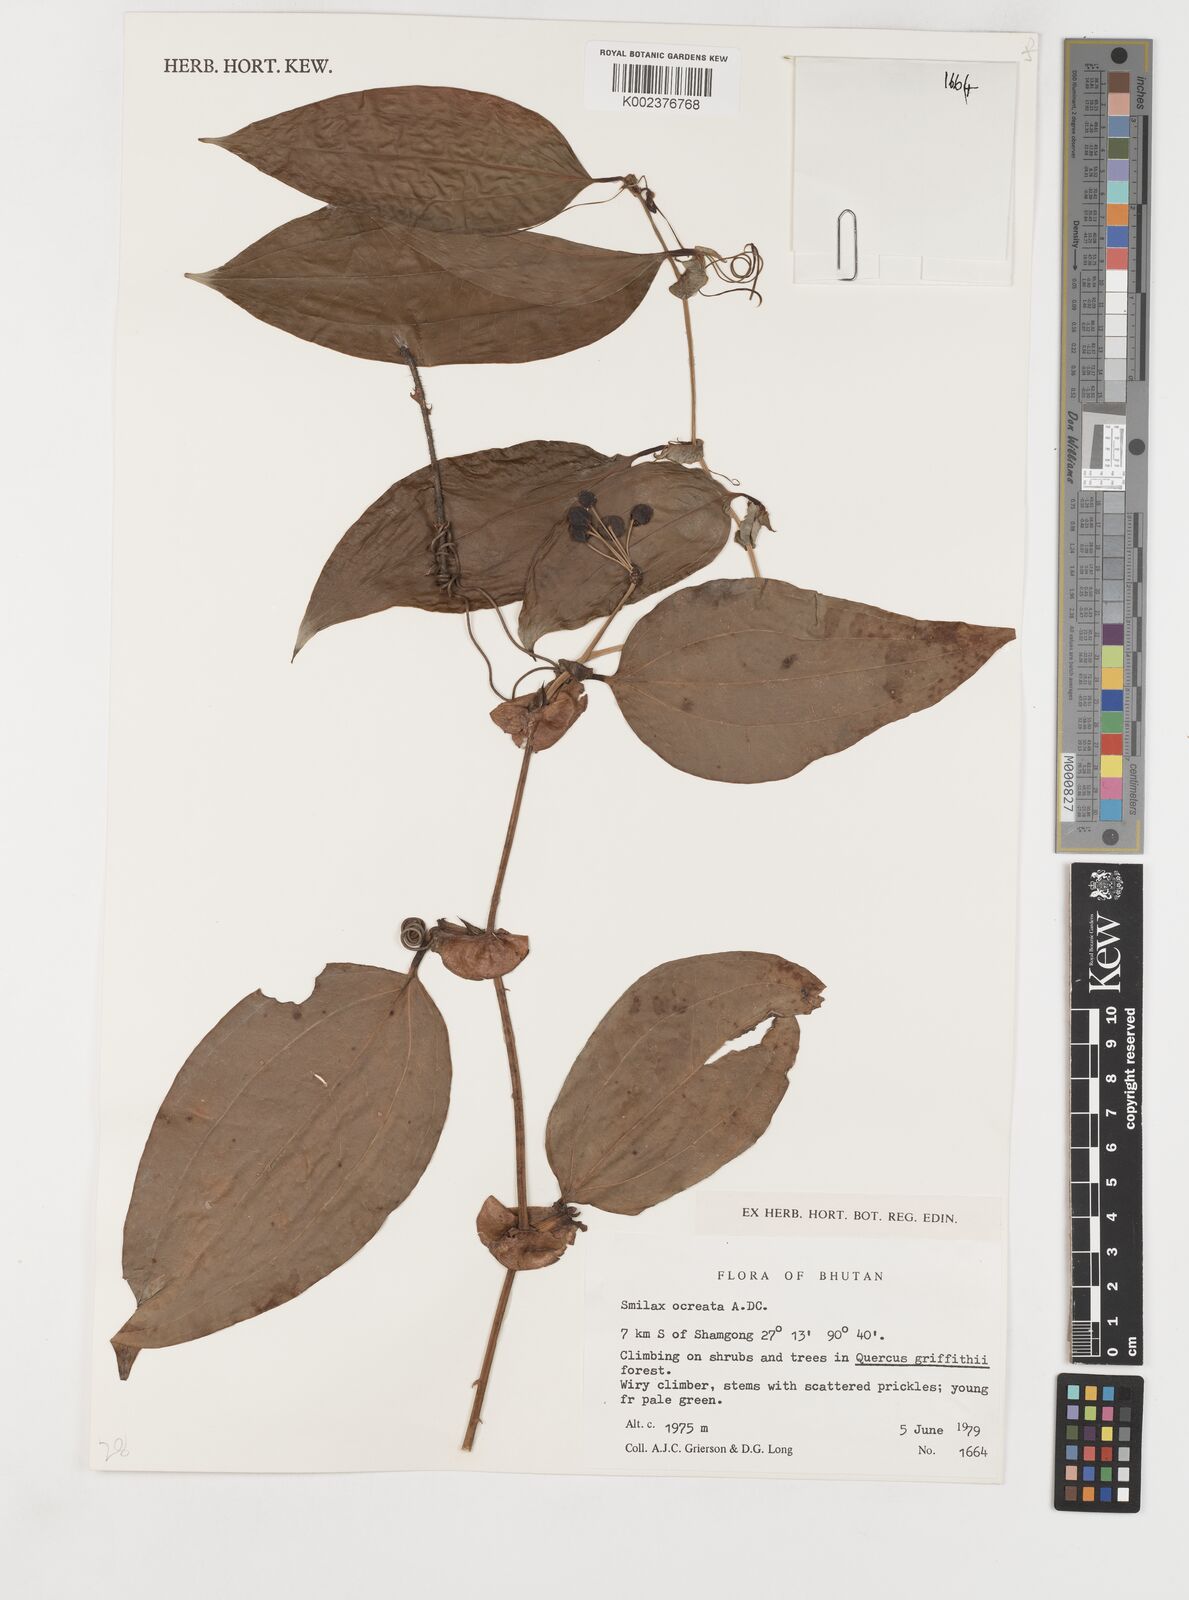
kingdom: Plantae
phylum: Tracheophyta
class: Liliopsida
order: Liliales
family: Smilacaceae
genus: Smilax
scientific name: Smilax ocreata
